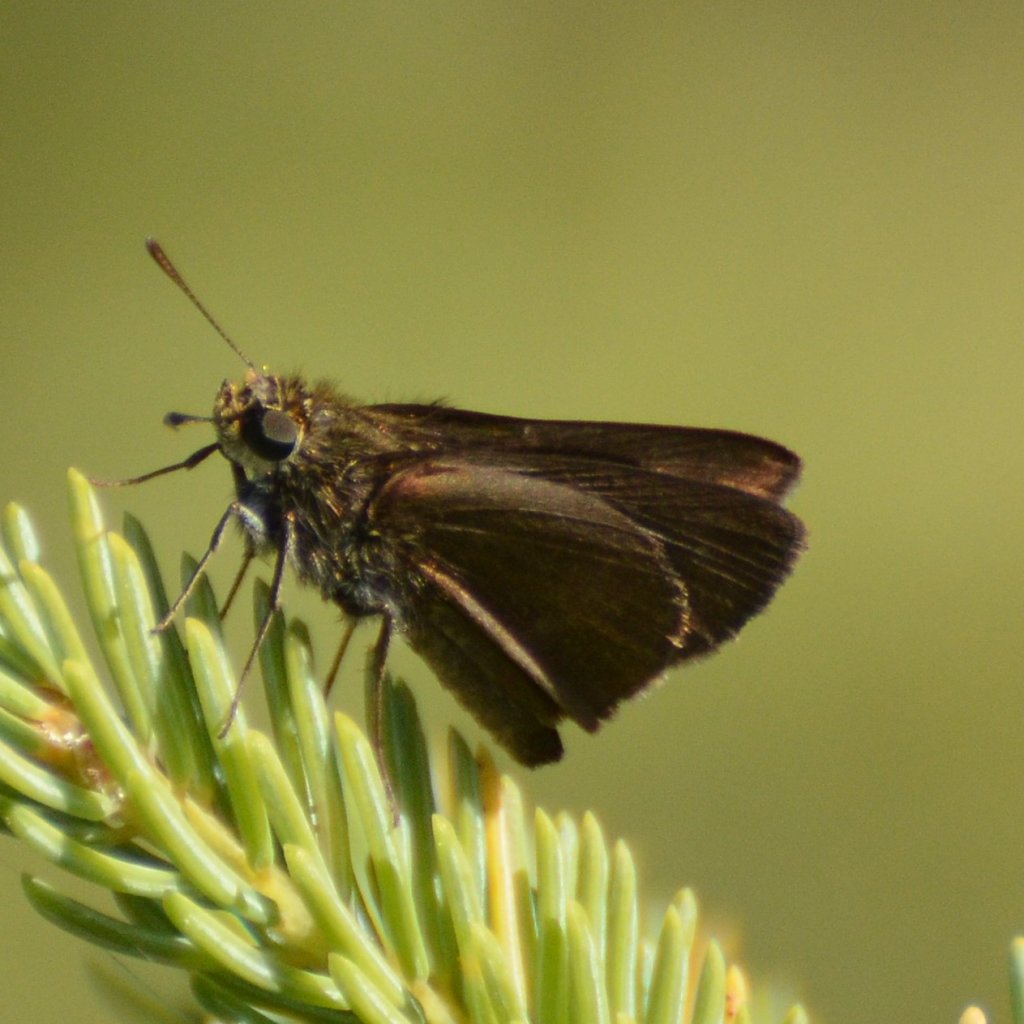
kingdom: Animalia
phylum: Arthropoda
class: Insecta
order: Lepidoptera
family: Hesperiidae
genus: Euphyes
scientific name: Euphyes vestris
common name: Dun Skipper
